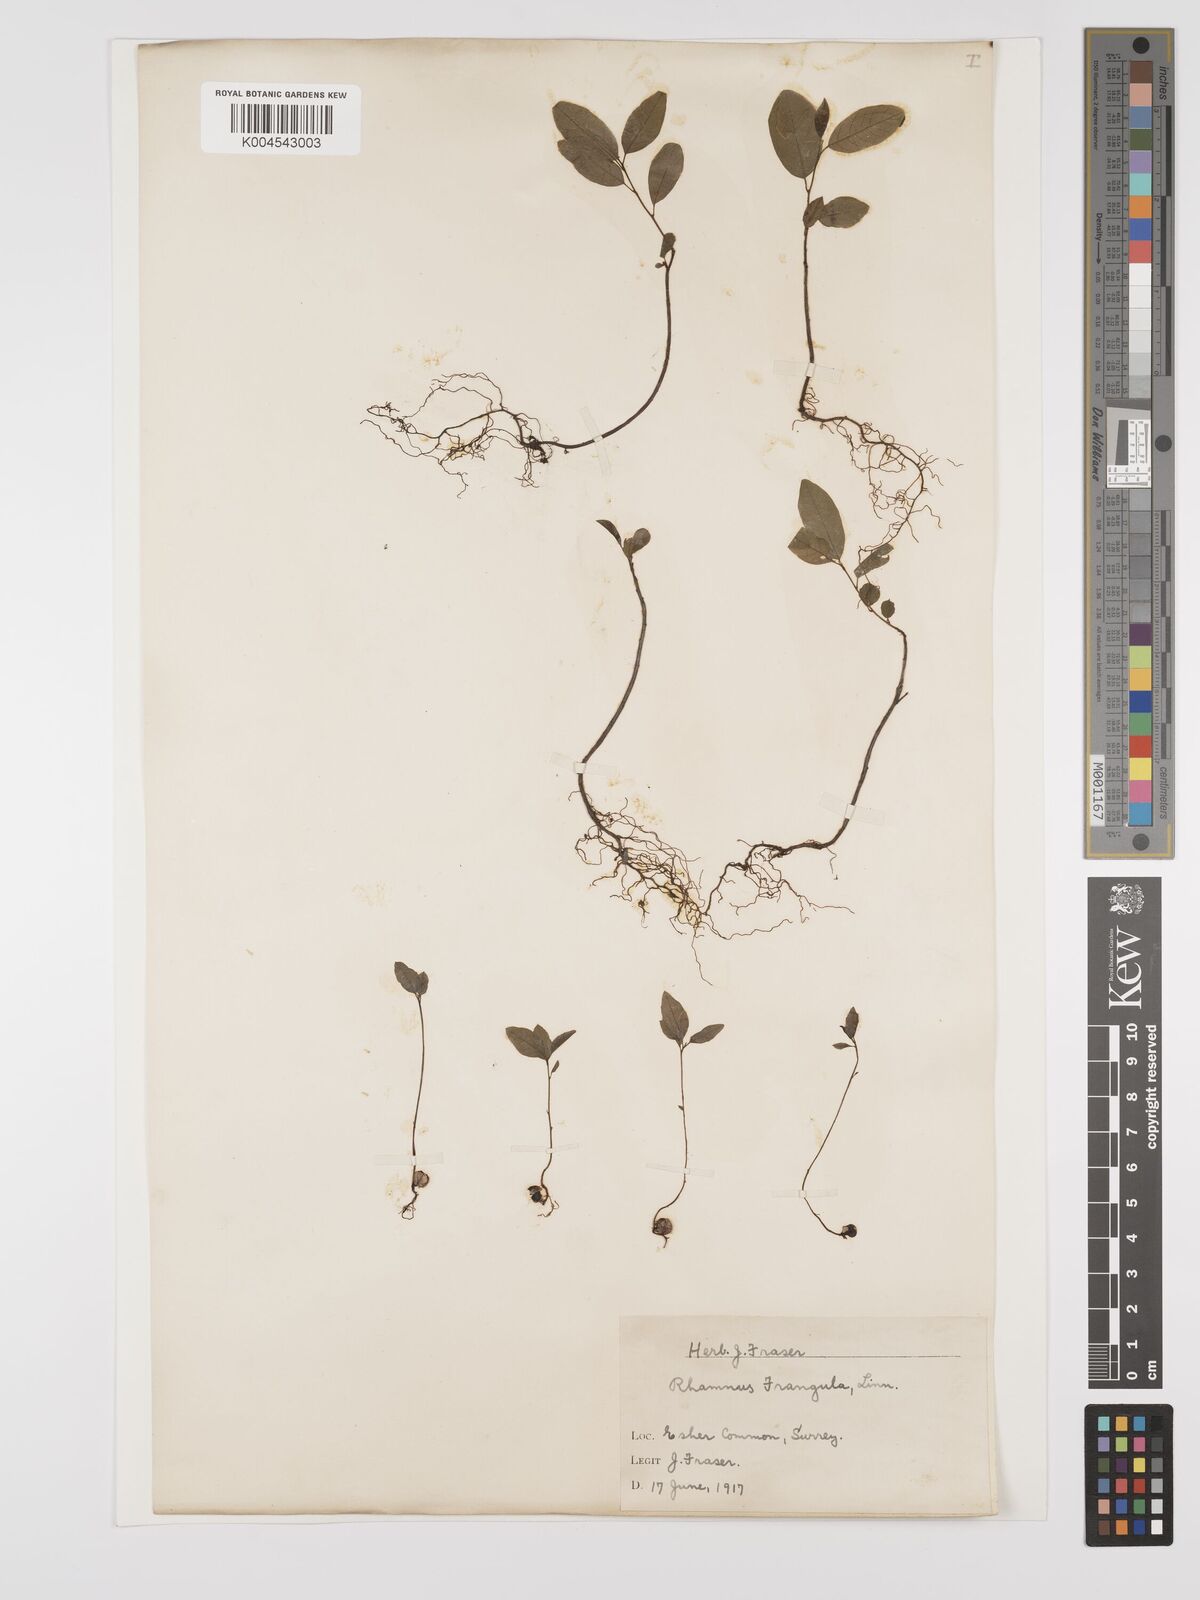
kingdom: Plantae
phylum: Tracheophyta
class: Magnoliopsida
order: Rosales
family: Rhamnaceae
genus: Frangula
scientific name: Frangula alnus
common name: Alder buckthorn
